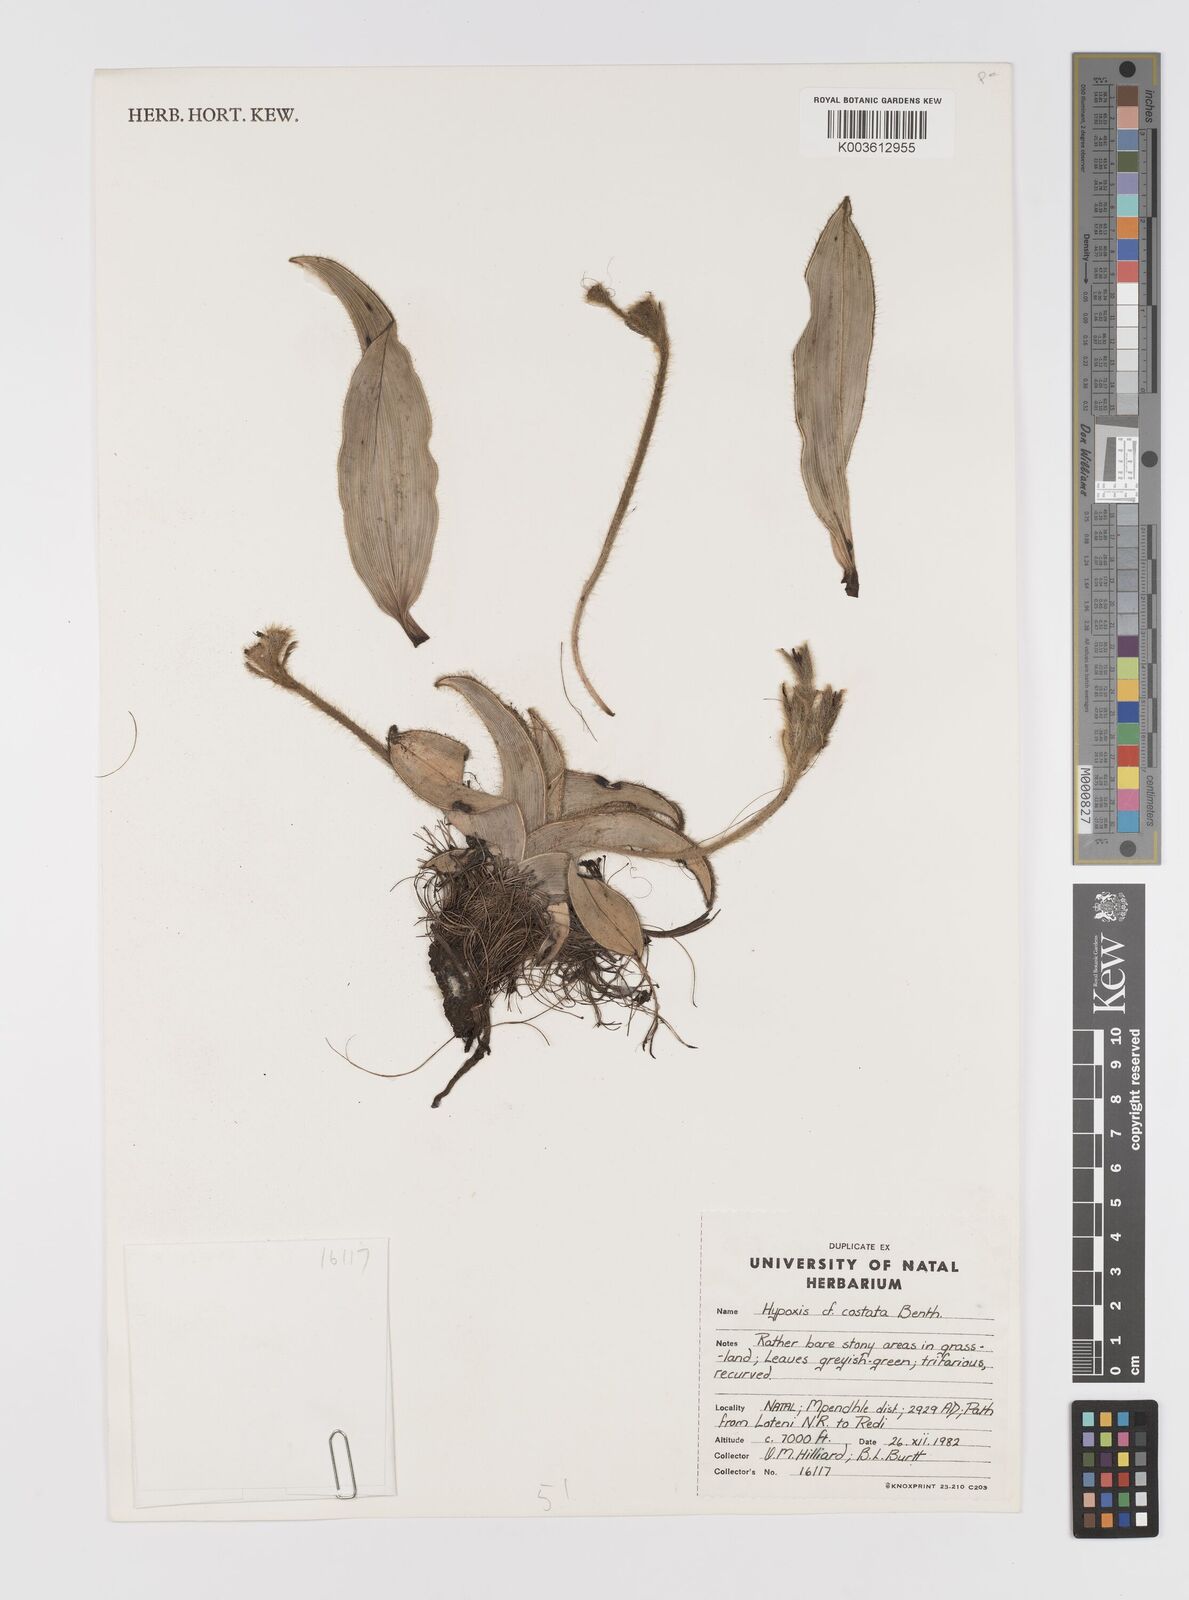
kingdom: Plantae
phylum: Tracheophyta
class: Liliopsida
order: Asparagales
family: Hypoxidaceae
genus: Hypoxis
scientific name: Hypoxis costata
